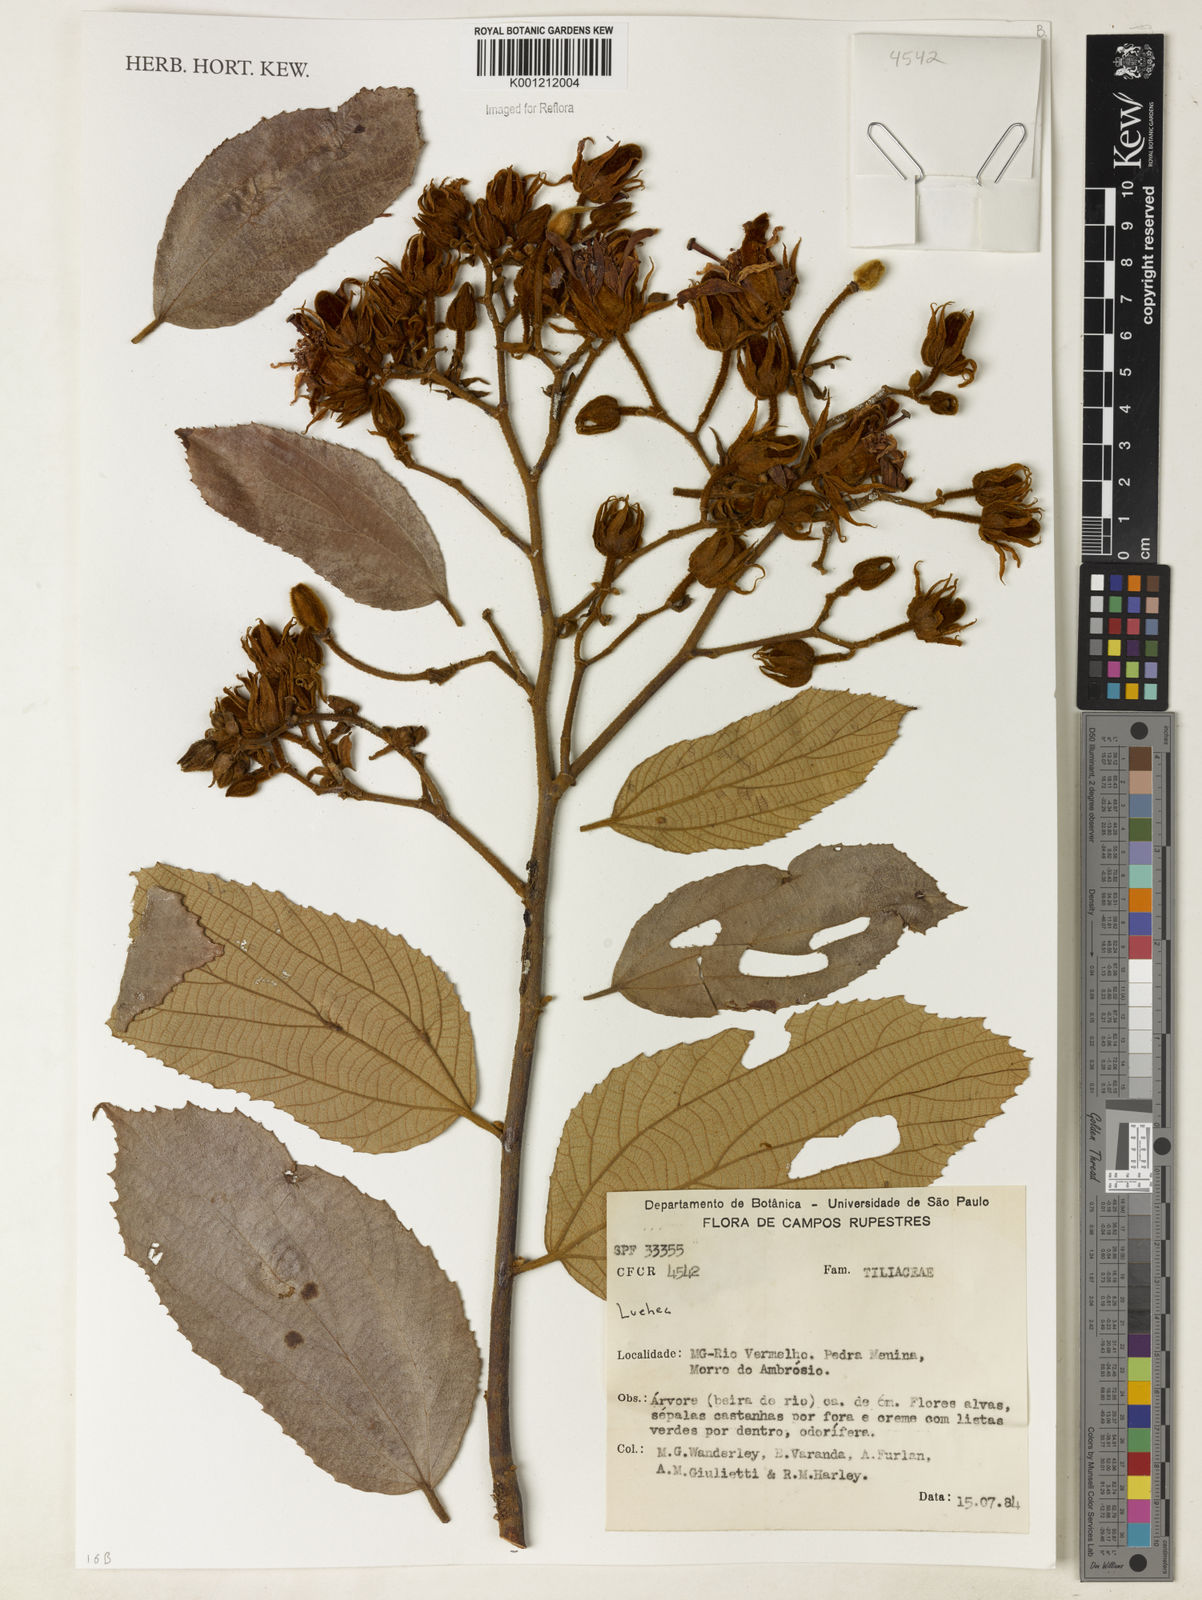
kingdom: Plantae
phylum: Tracheophyta
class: Magnoliopsida
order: Malvales
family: Malvaceae
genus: Luehea
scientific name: Luehea
